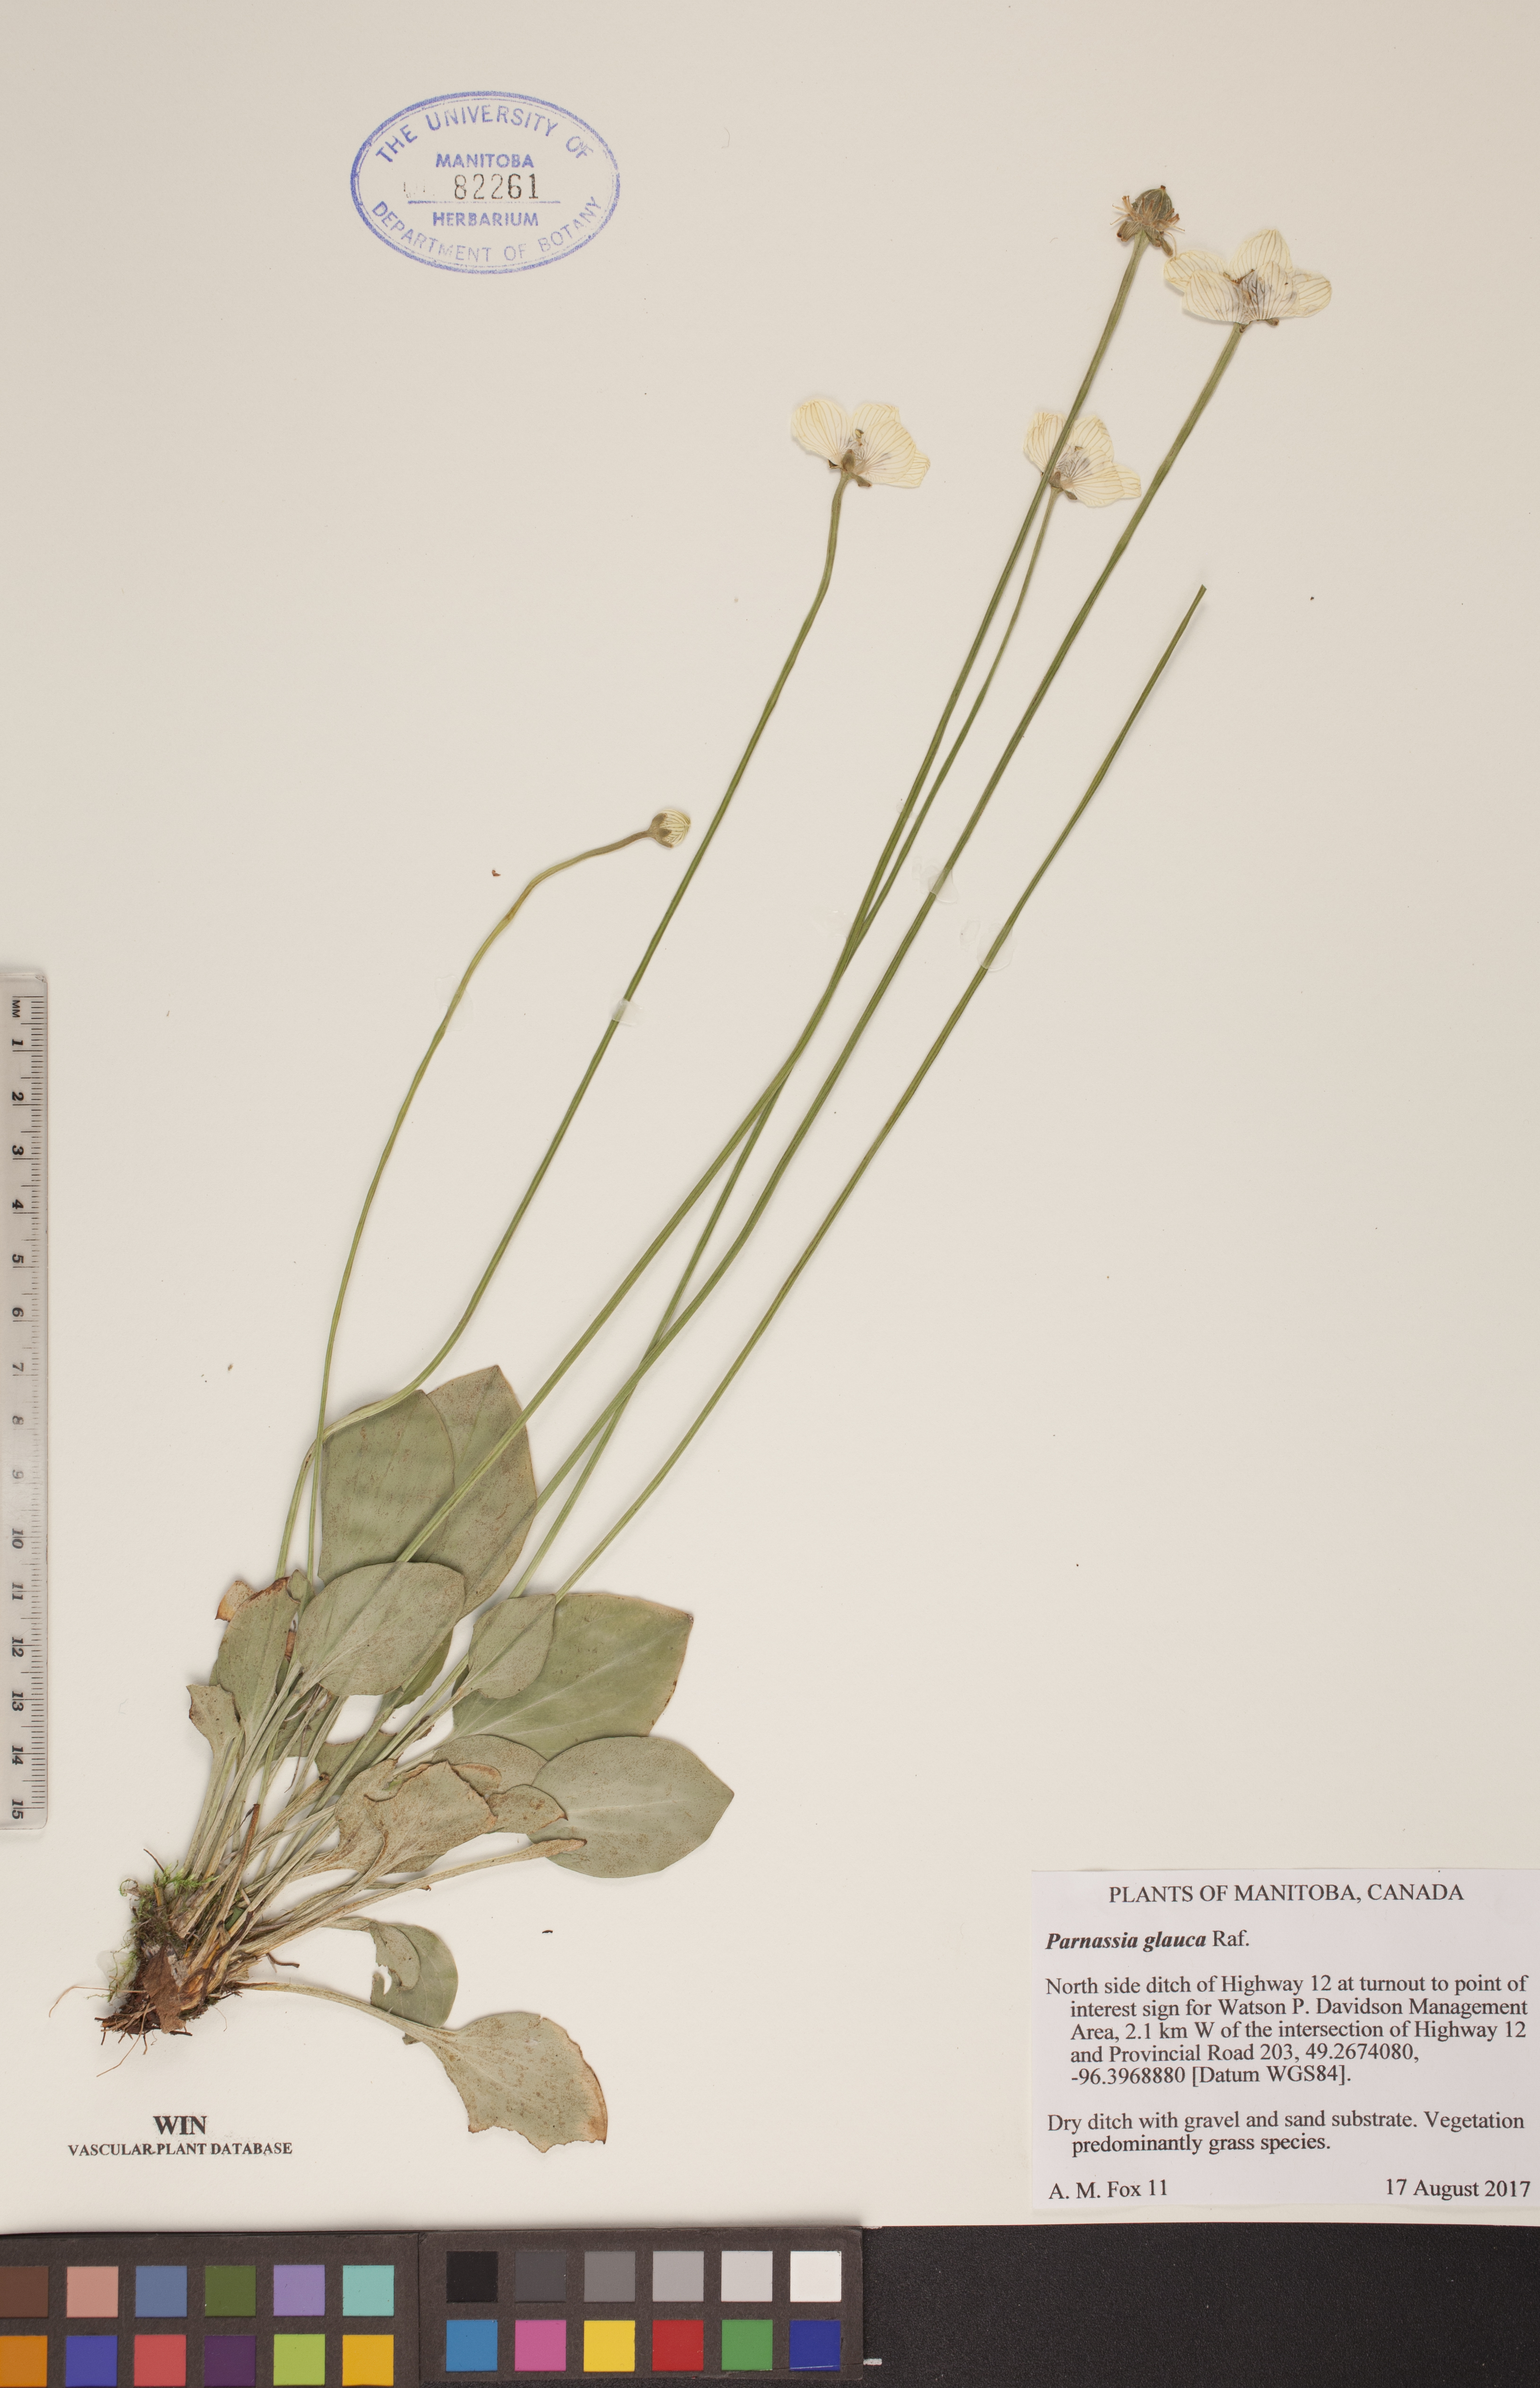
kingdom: Plantae
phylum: Tracheophyta
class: Magnoliopsida
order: Celastrales
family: Parnassiaceae
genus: Parnassia
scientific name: Parnassia glauca
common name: American grass-of-parnassus
